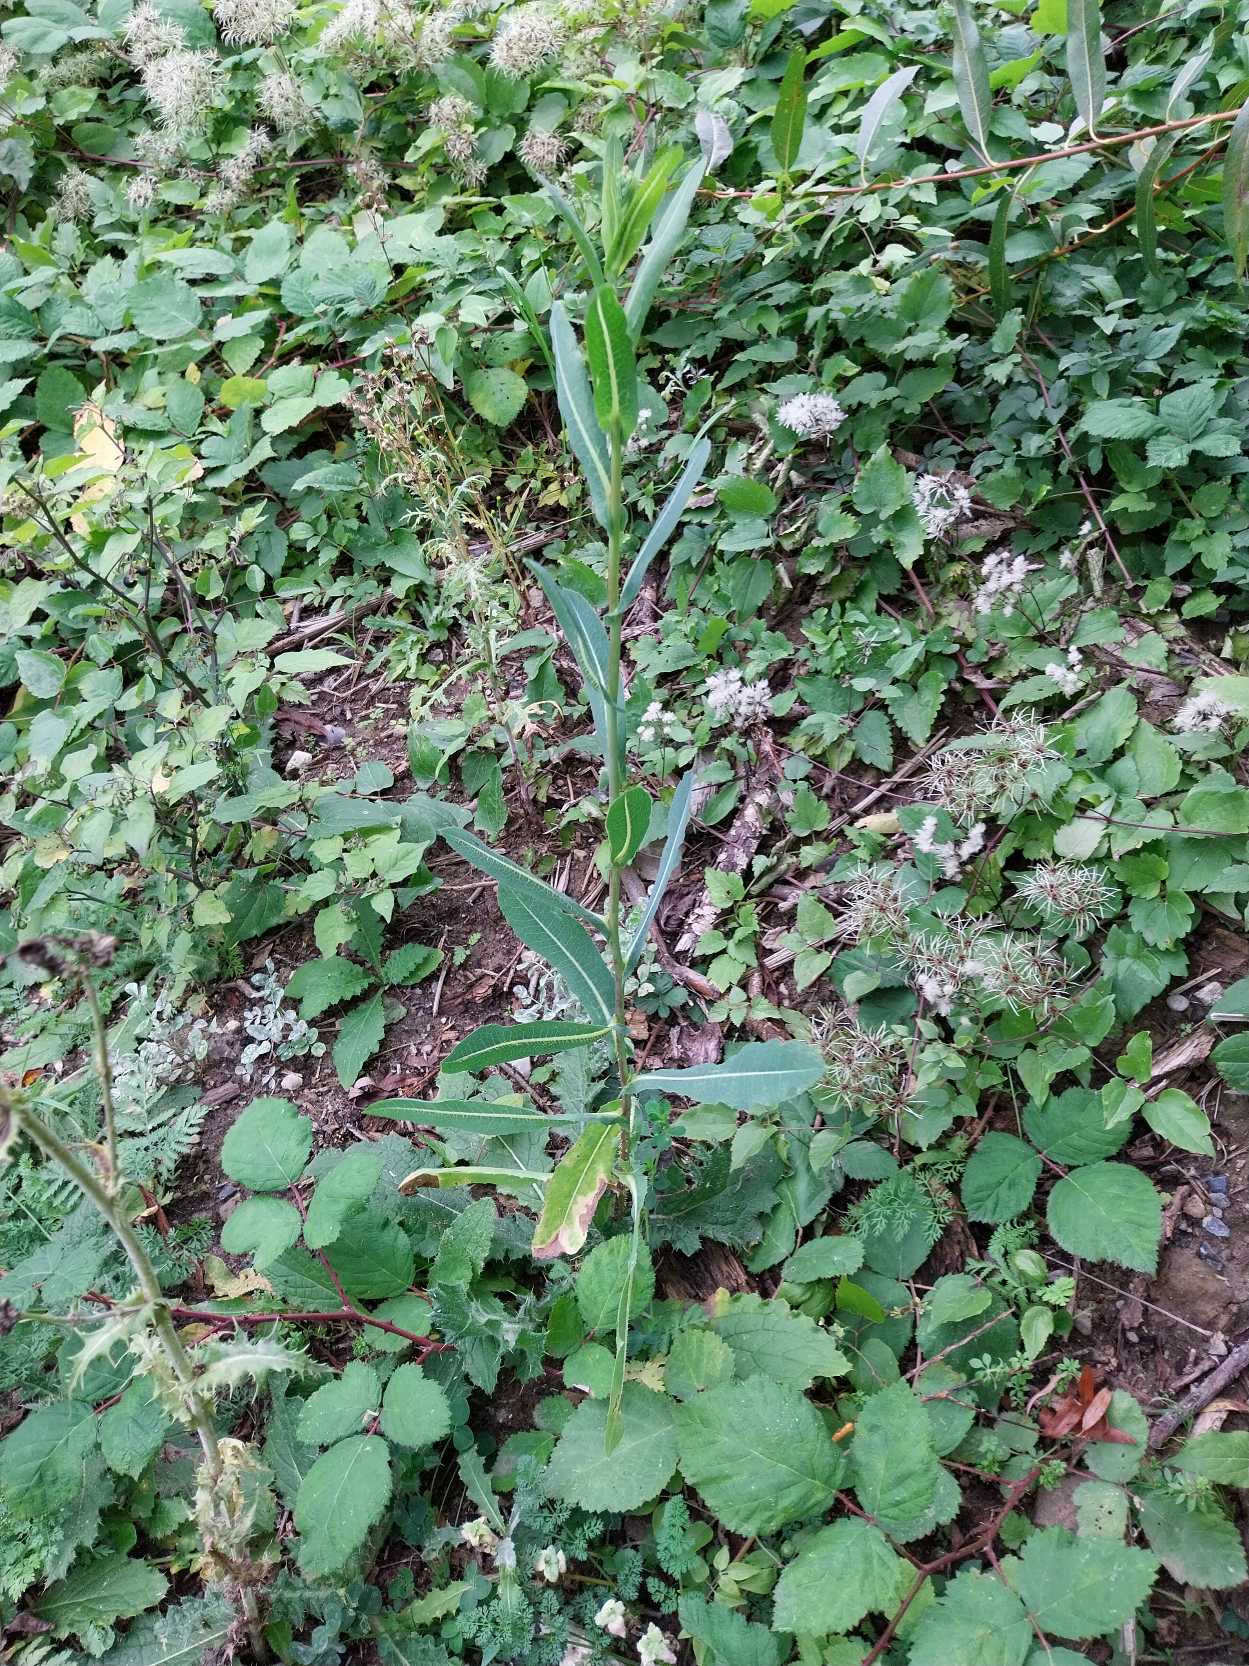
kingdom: Plantae
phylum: Tracheophyta
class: Magnoliopsida
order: Asterales
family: Asteraceae
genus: Lactuca
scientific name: Lactuca serriola
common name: Tornet salat
